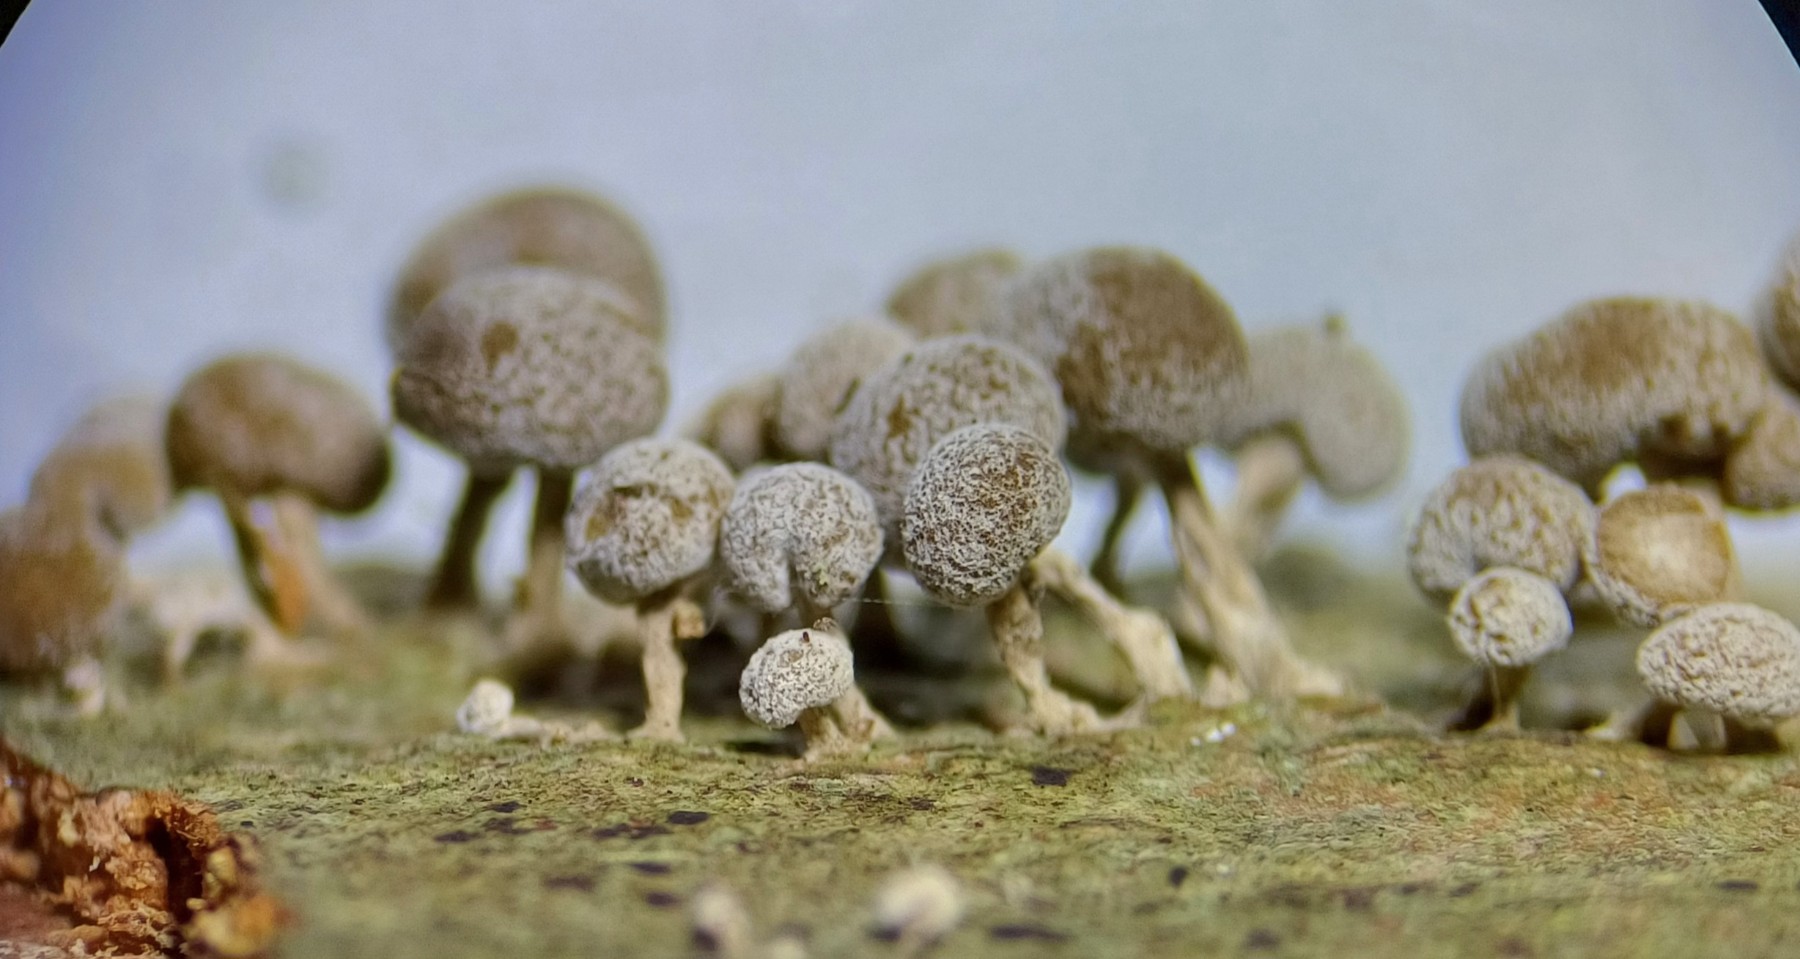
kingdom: Fungi
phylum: Basidiomycota
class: Atractiellomycetes
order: Atractiellales
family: Phleogenaceae
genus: Phleogena
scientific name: Phleogena faginea
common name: pudderkølle
